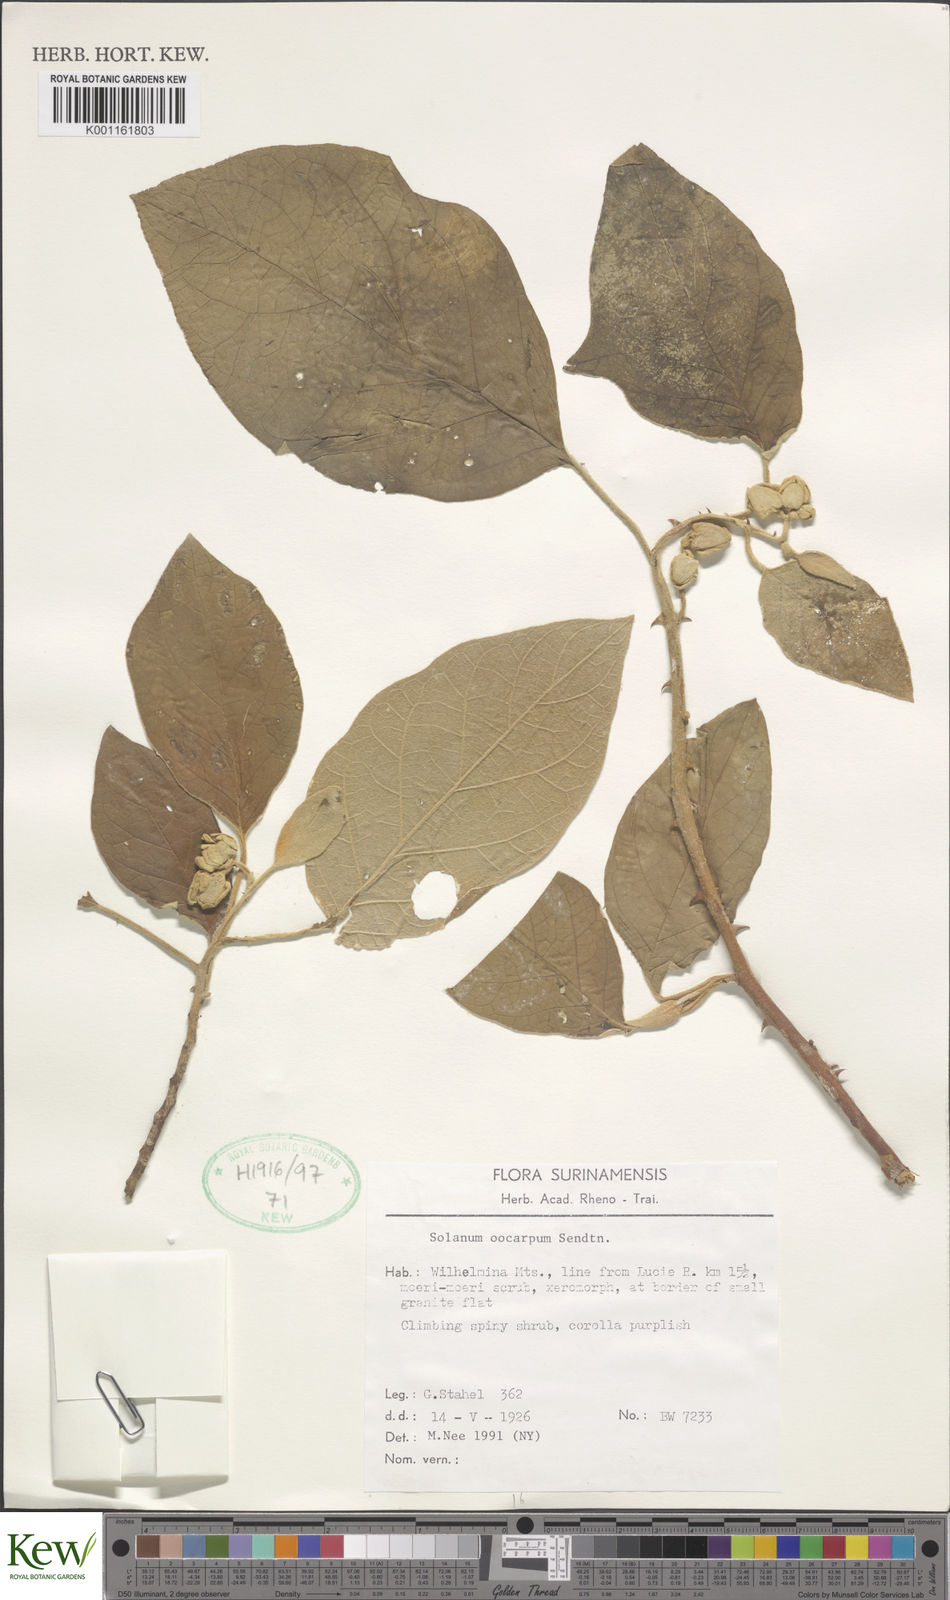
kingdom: Plantae
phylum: Tracheophyta
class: Magnoliopsida
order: Solanales
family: Solanaceae
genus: Solanum
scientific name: Solanum oocarpum
